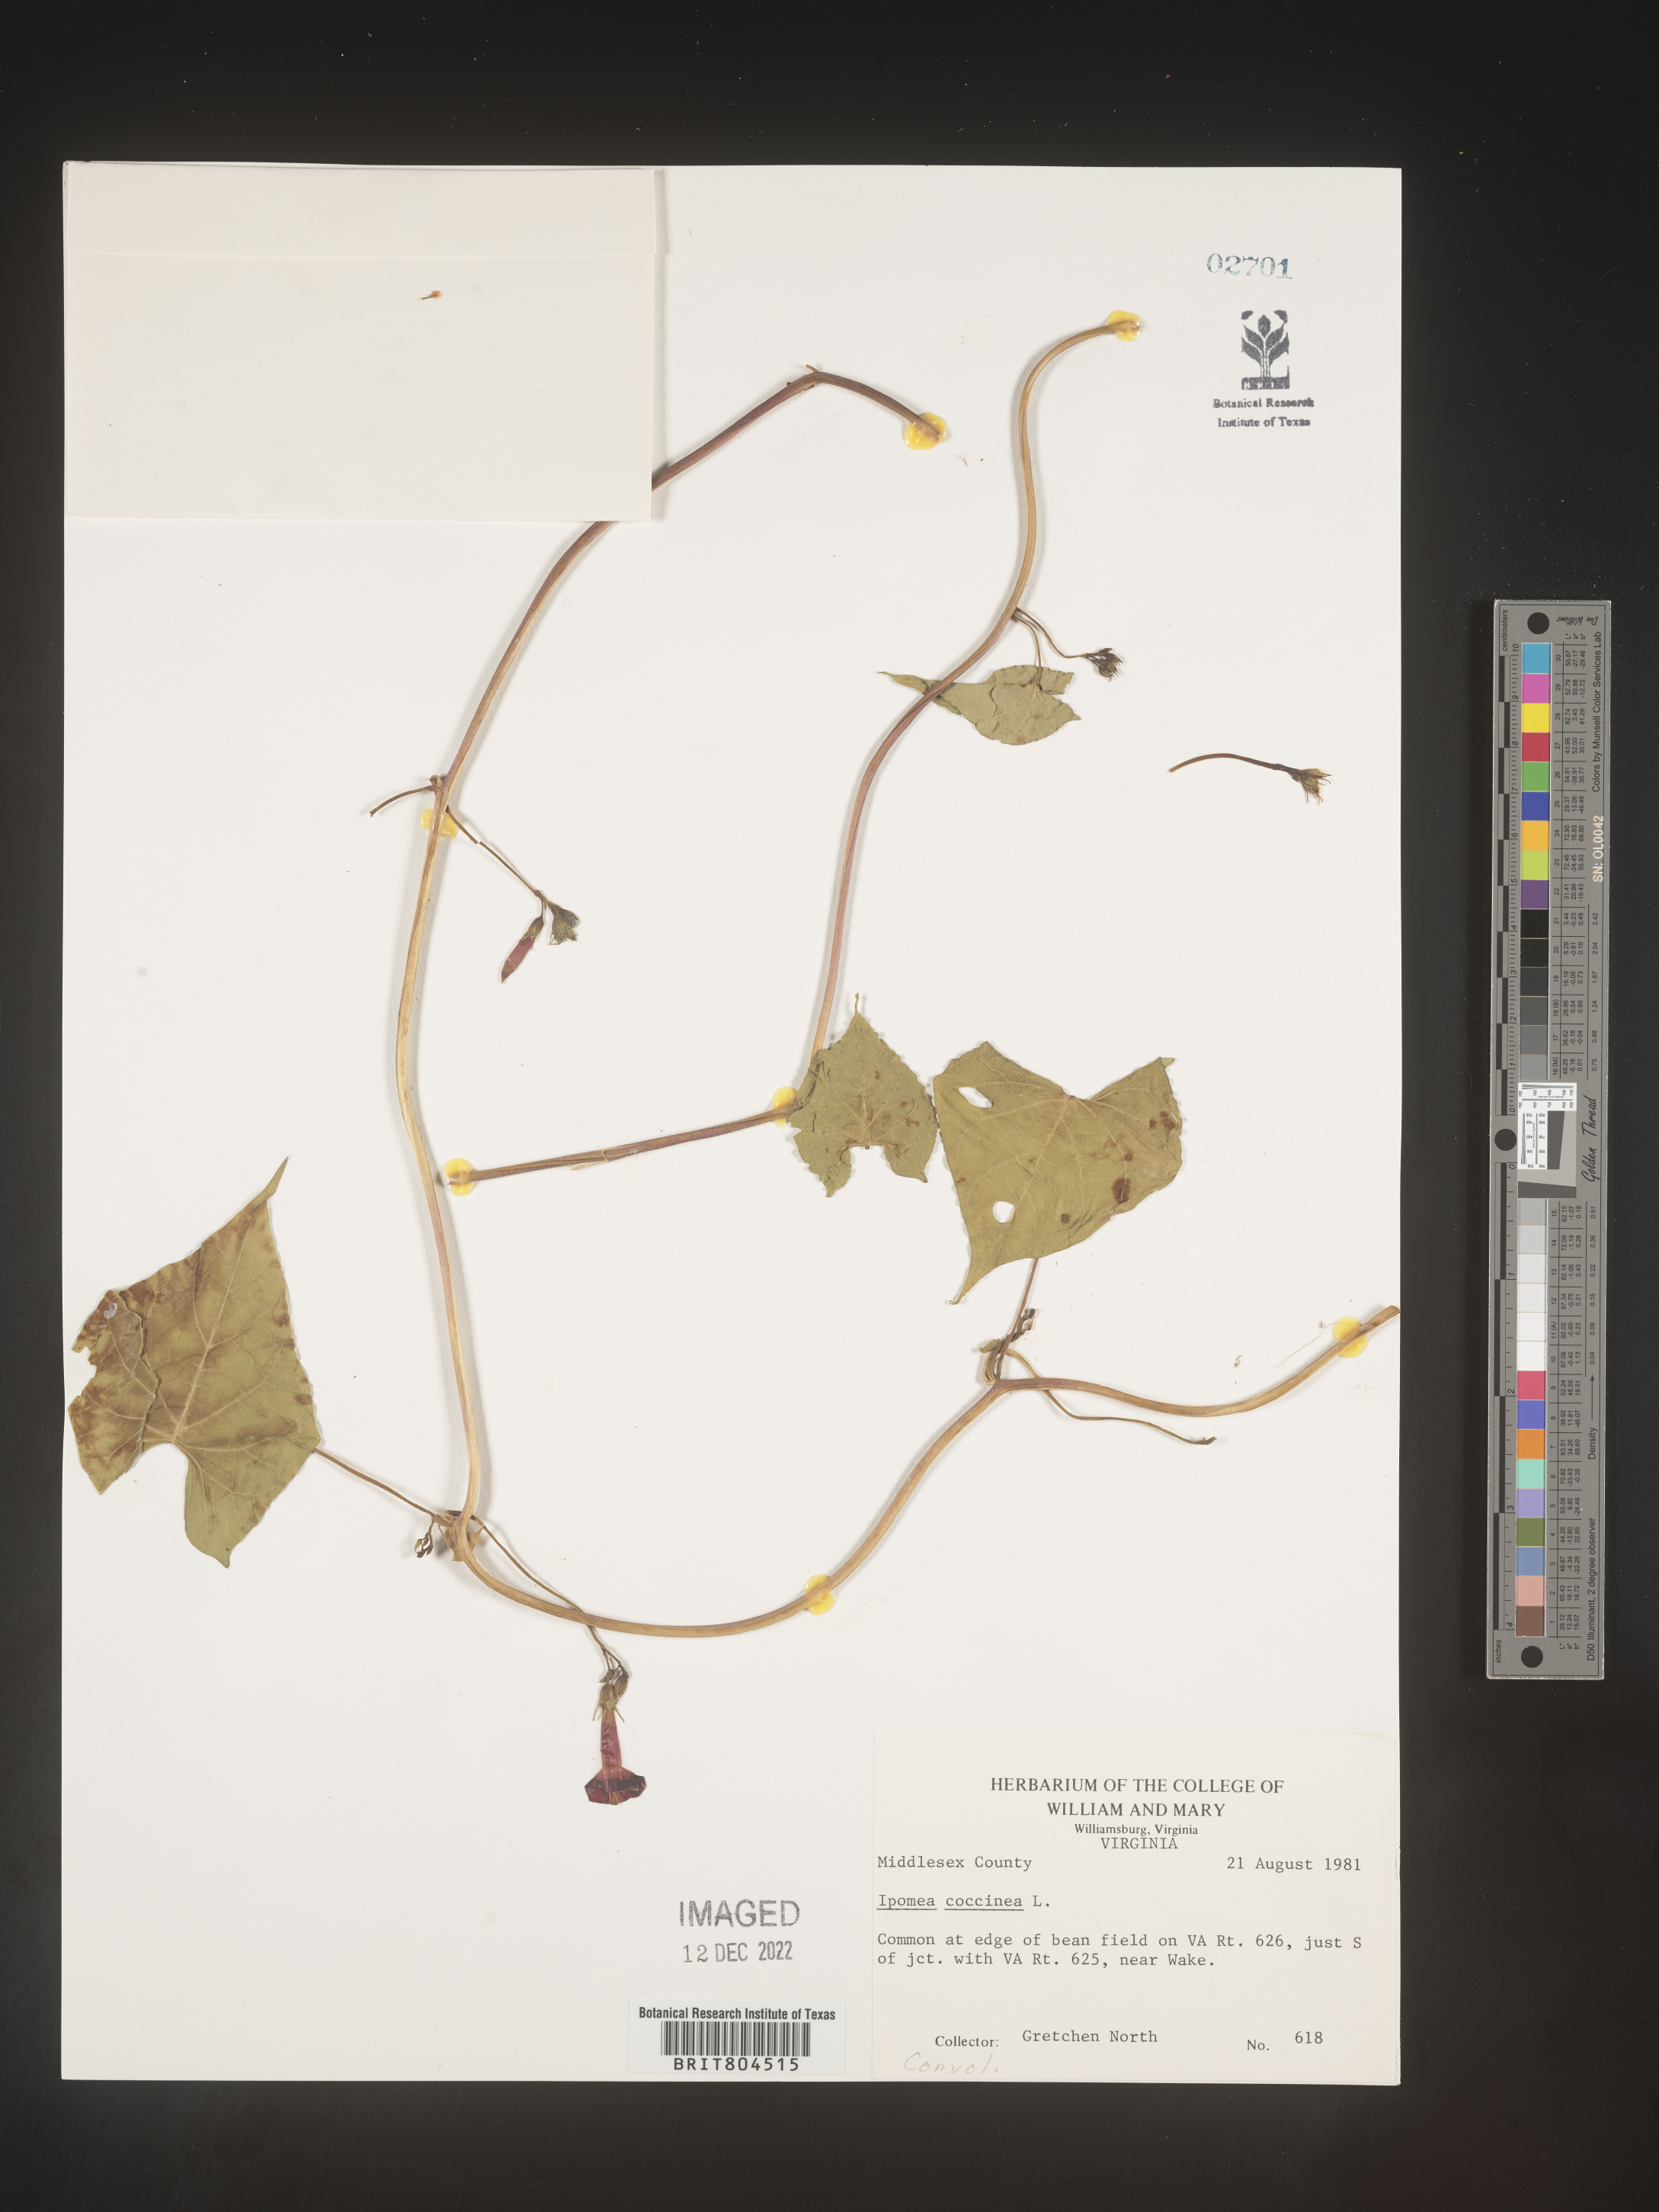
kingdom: Plantae
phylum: Tracheophyta
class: Magnoliopsida
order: Solanales
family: Convolvulaceae
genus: Ipomoea
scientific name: Ipomoea coccinea
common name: Red morning-glory
